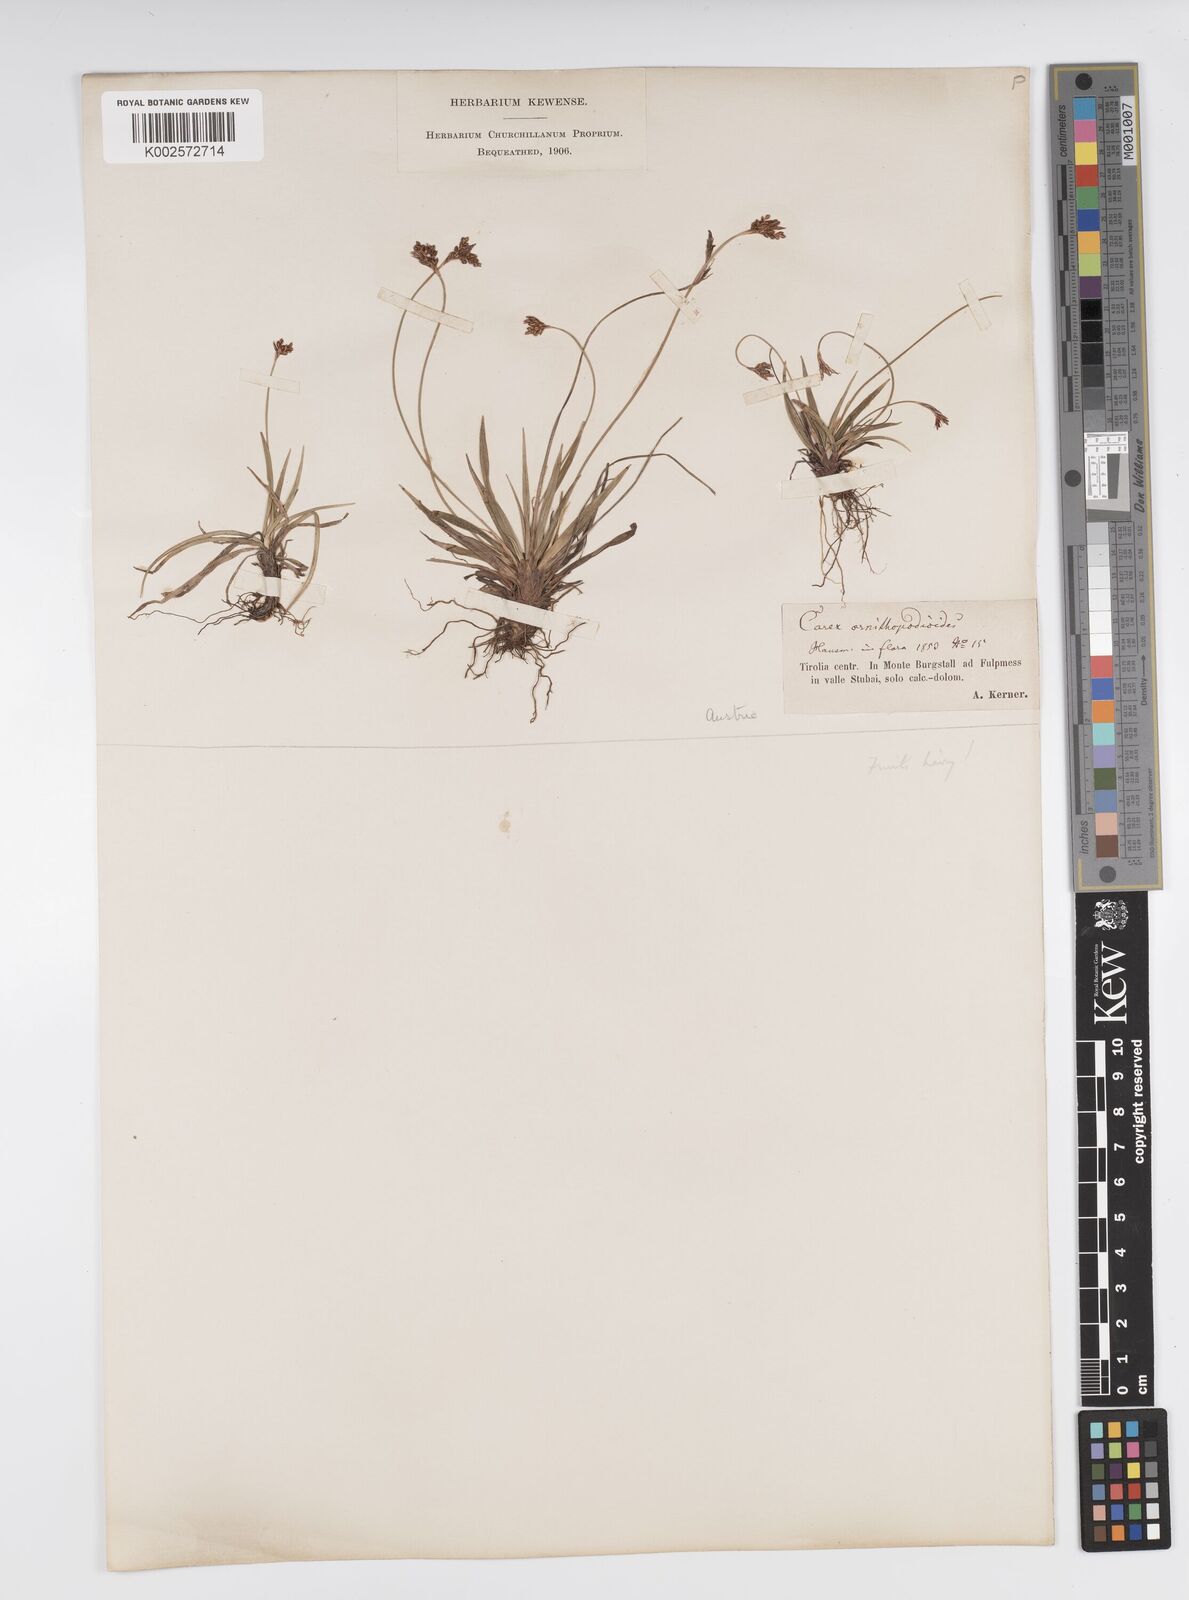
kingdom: Plantae
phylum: Tracheophyta
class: Liliopsida
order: Poales
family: Cyperaceae
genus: Carex
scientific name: Carex ornithopoda
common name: Bird's-foot sedge
